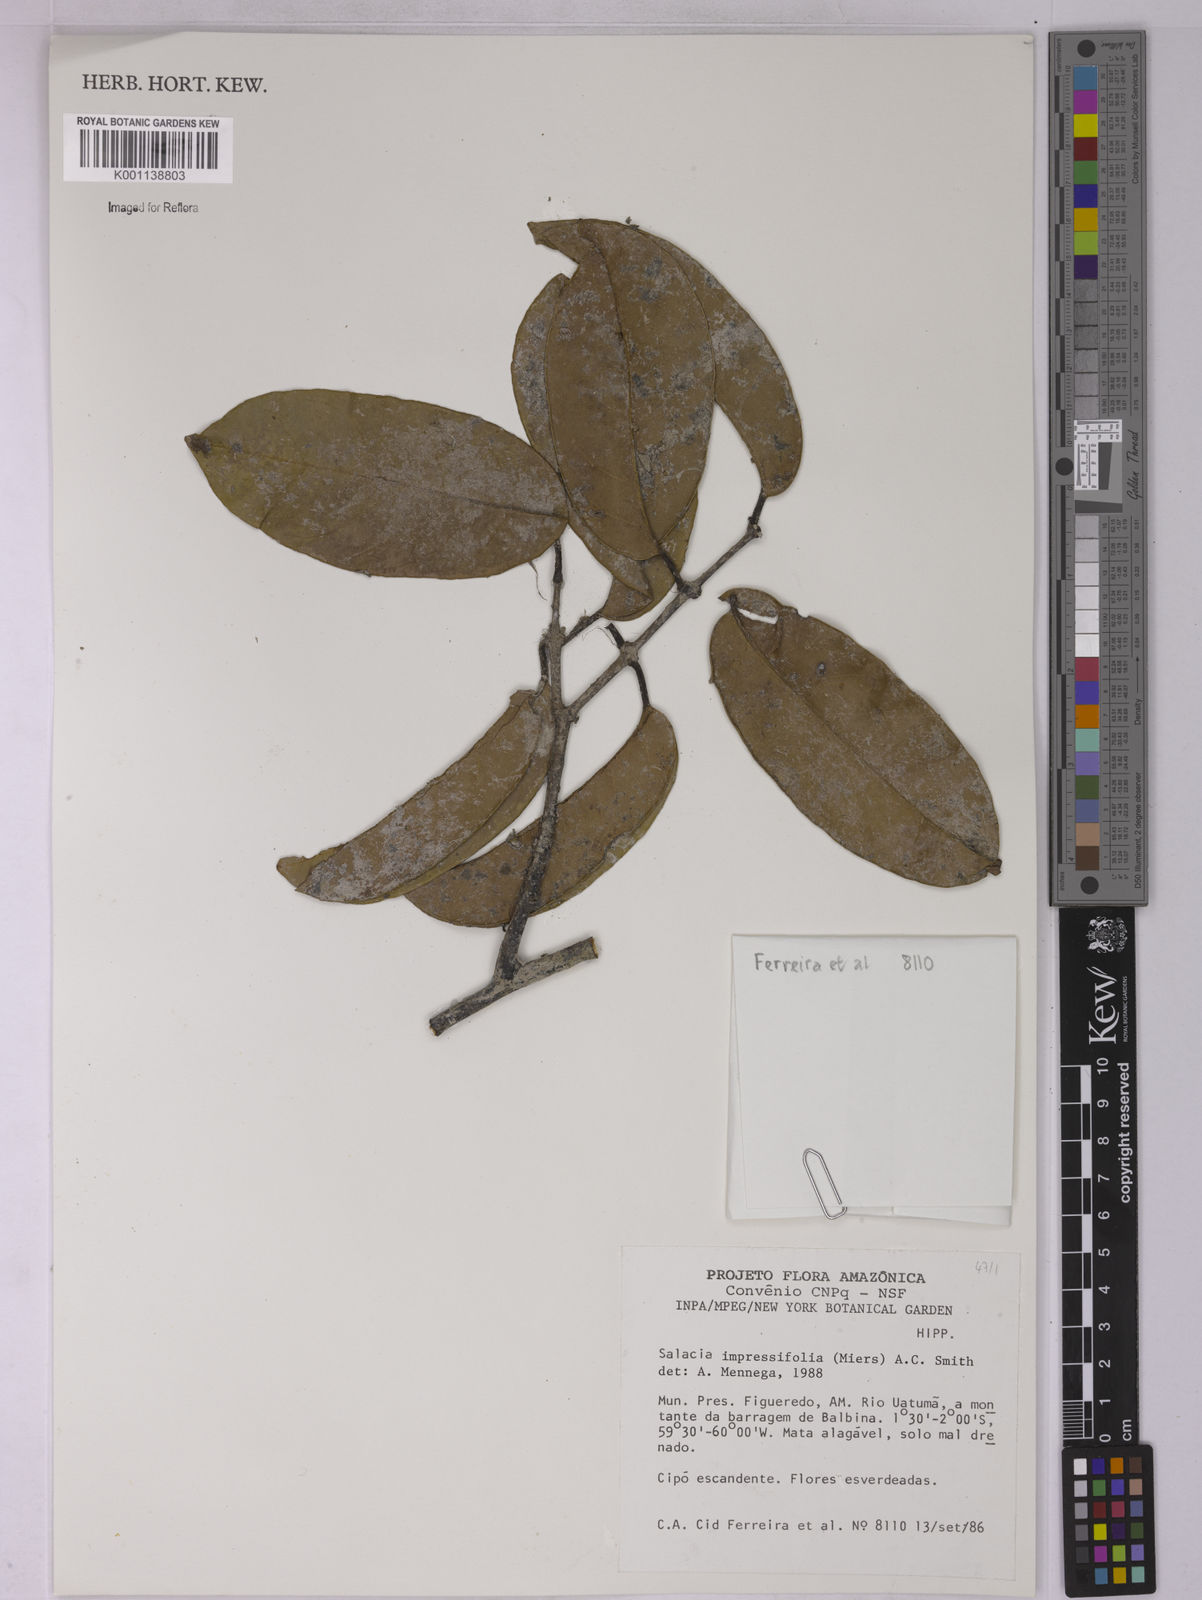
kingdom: Plantae
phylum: Tracheophyta
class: Magnoliopsida
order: Celastrales
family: Celastraceae
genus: Salacia
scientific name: Salacia impressifolia
